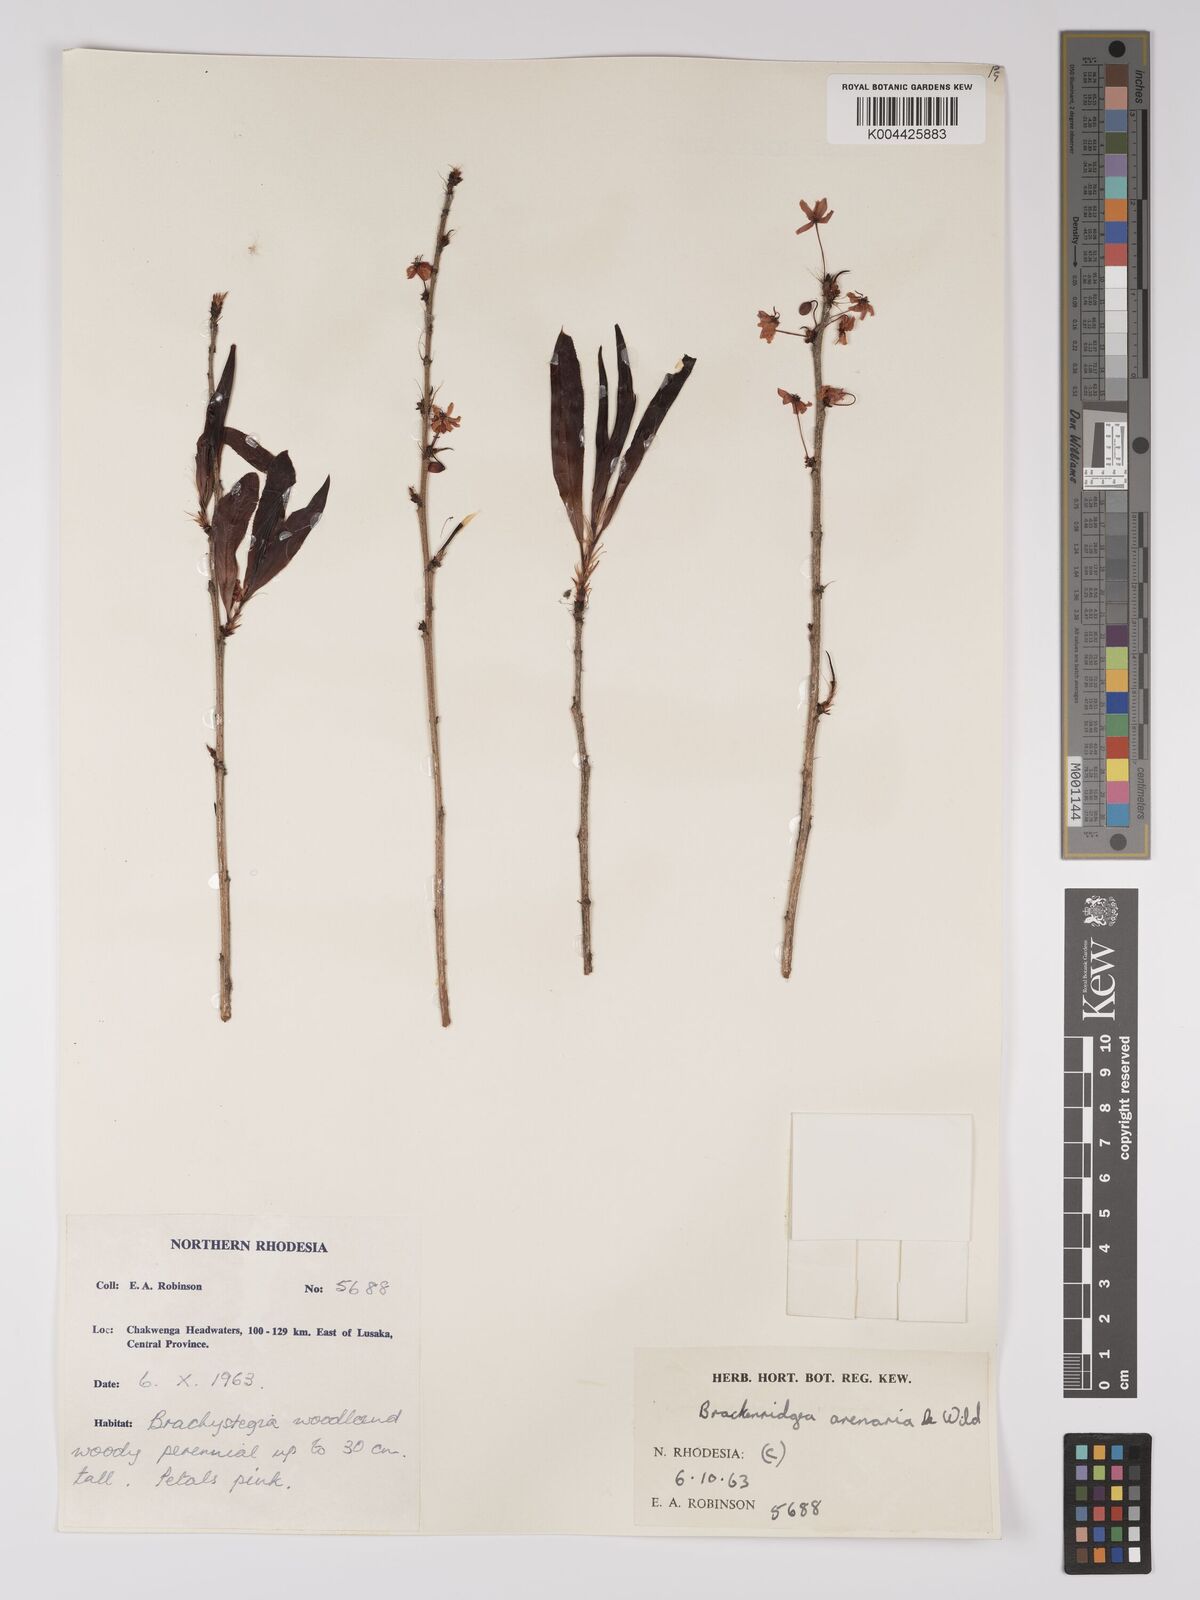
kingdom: Plantae
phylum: Tracheophyta
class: Magnoliopsida
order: Malpighiales
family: Ochnaceae
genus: Ochna
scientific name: Ochna arenaria
